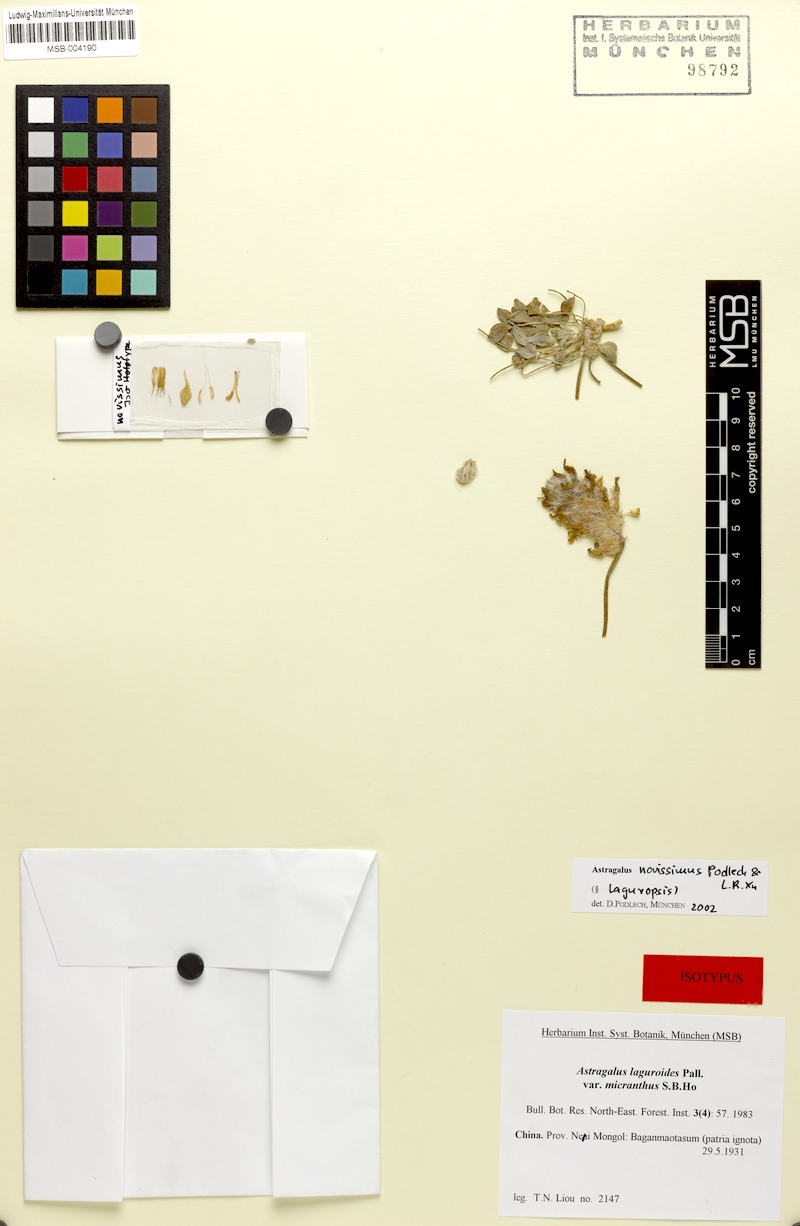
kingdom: Plantae
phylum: Tracheophyta
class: Magnoliopsida
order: Fabales
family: Fabaceae
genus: Astragalus
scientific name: Astragalus novissimus
